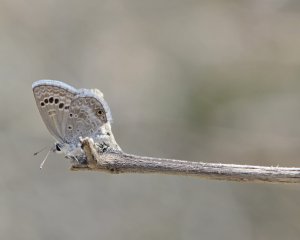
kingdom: Animalia
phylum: Arthropoda
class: Insecta
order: Lepidoptera
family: Lycaenidae
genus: Echinargus
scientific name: Echinargus isola
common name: Reakirt's Blue
